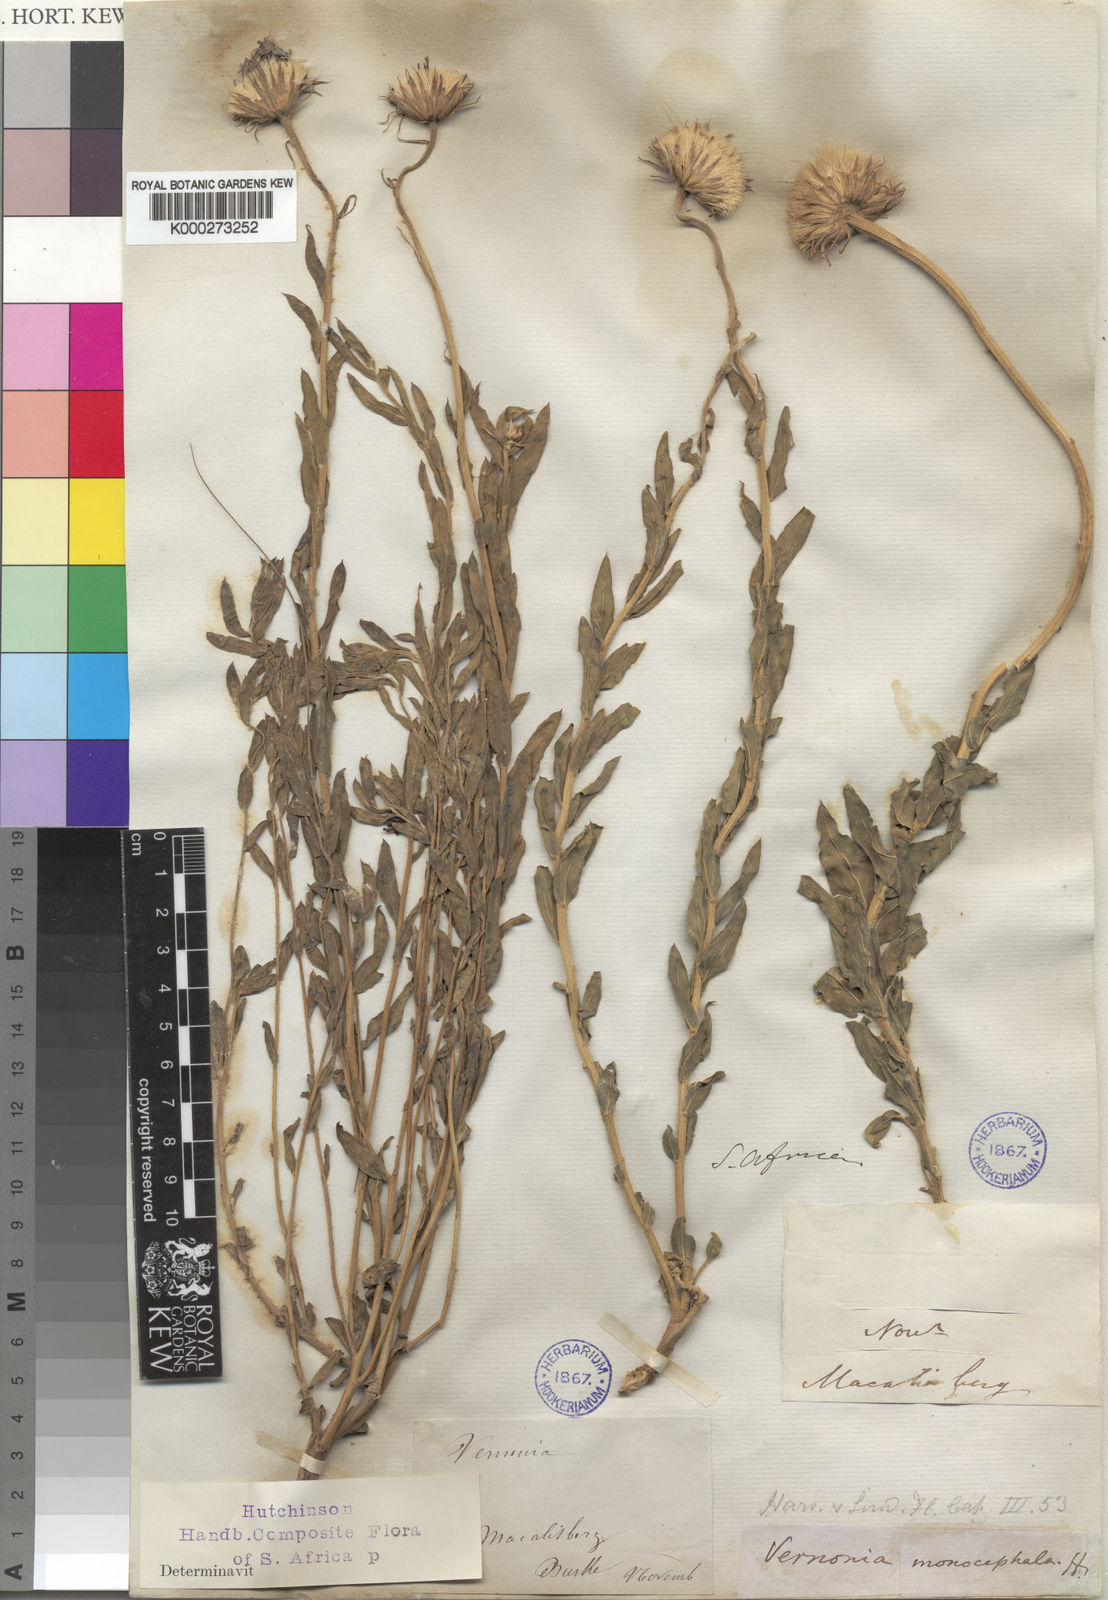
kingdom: Plantae
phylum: Tracheophyta
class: Magnoliopsida
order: Asterales
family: Asteraceae
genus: Pseudopegolettia
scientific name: Pseudopegolettia tenella
